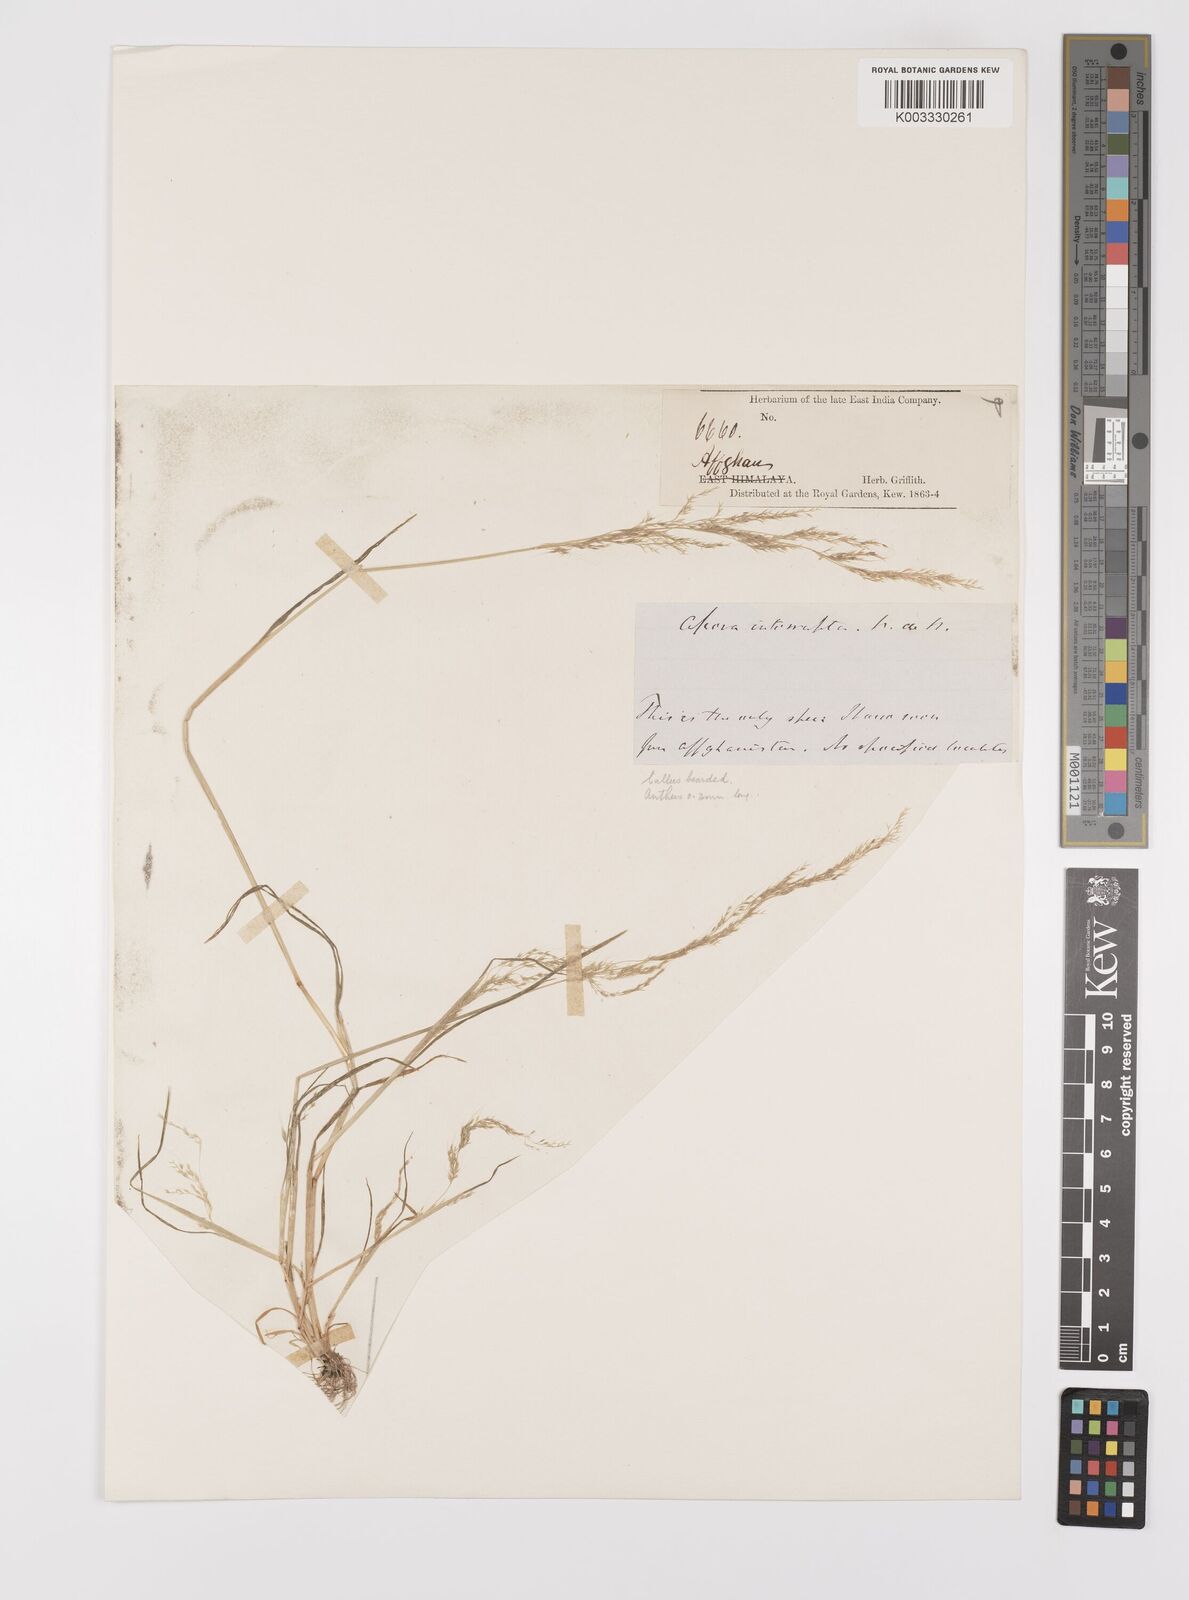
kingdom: Plantae
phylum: Tracheophyta
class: Liliopsida
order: Poales
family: Poaceae
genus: Apera
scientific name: Apera interrupta
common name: Dense silky-bent
